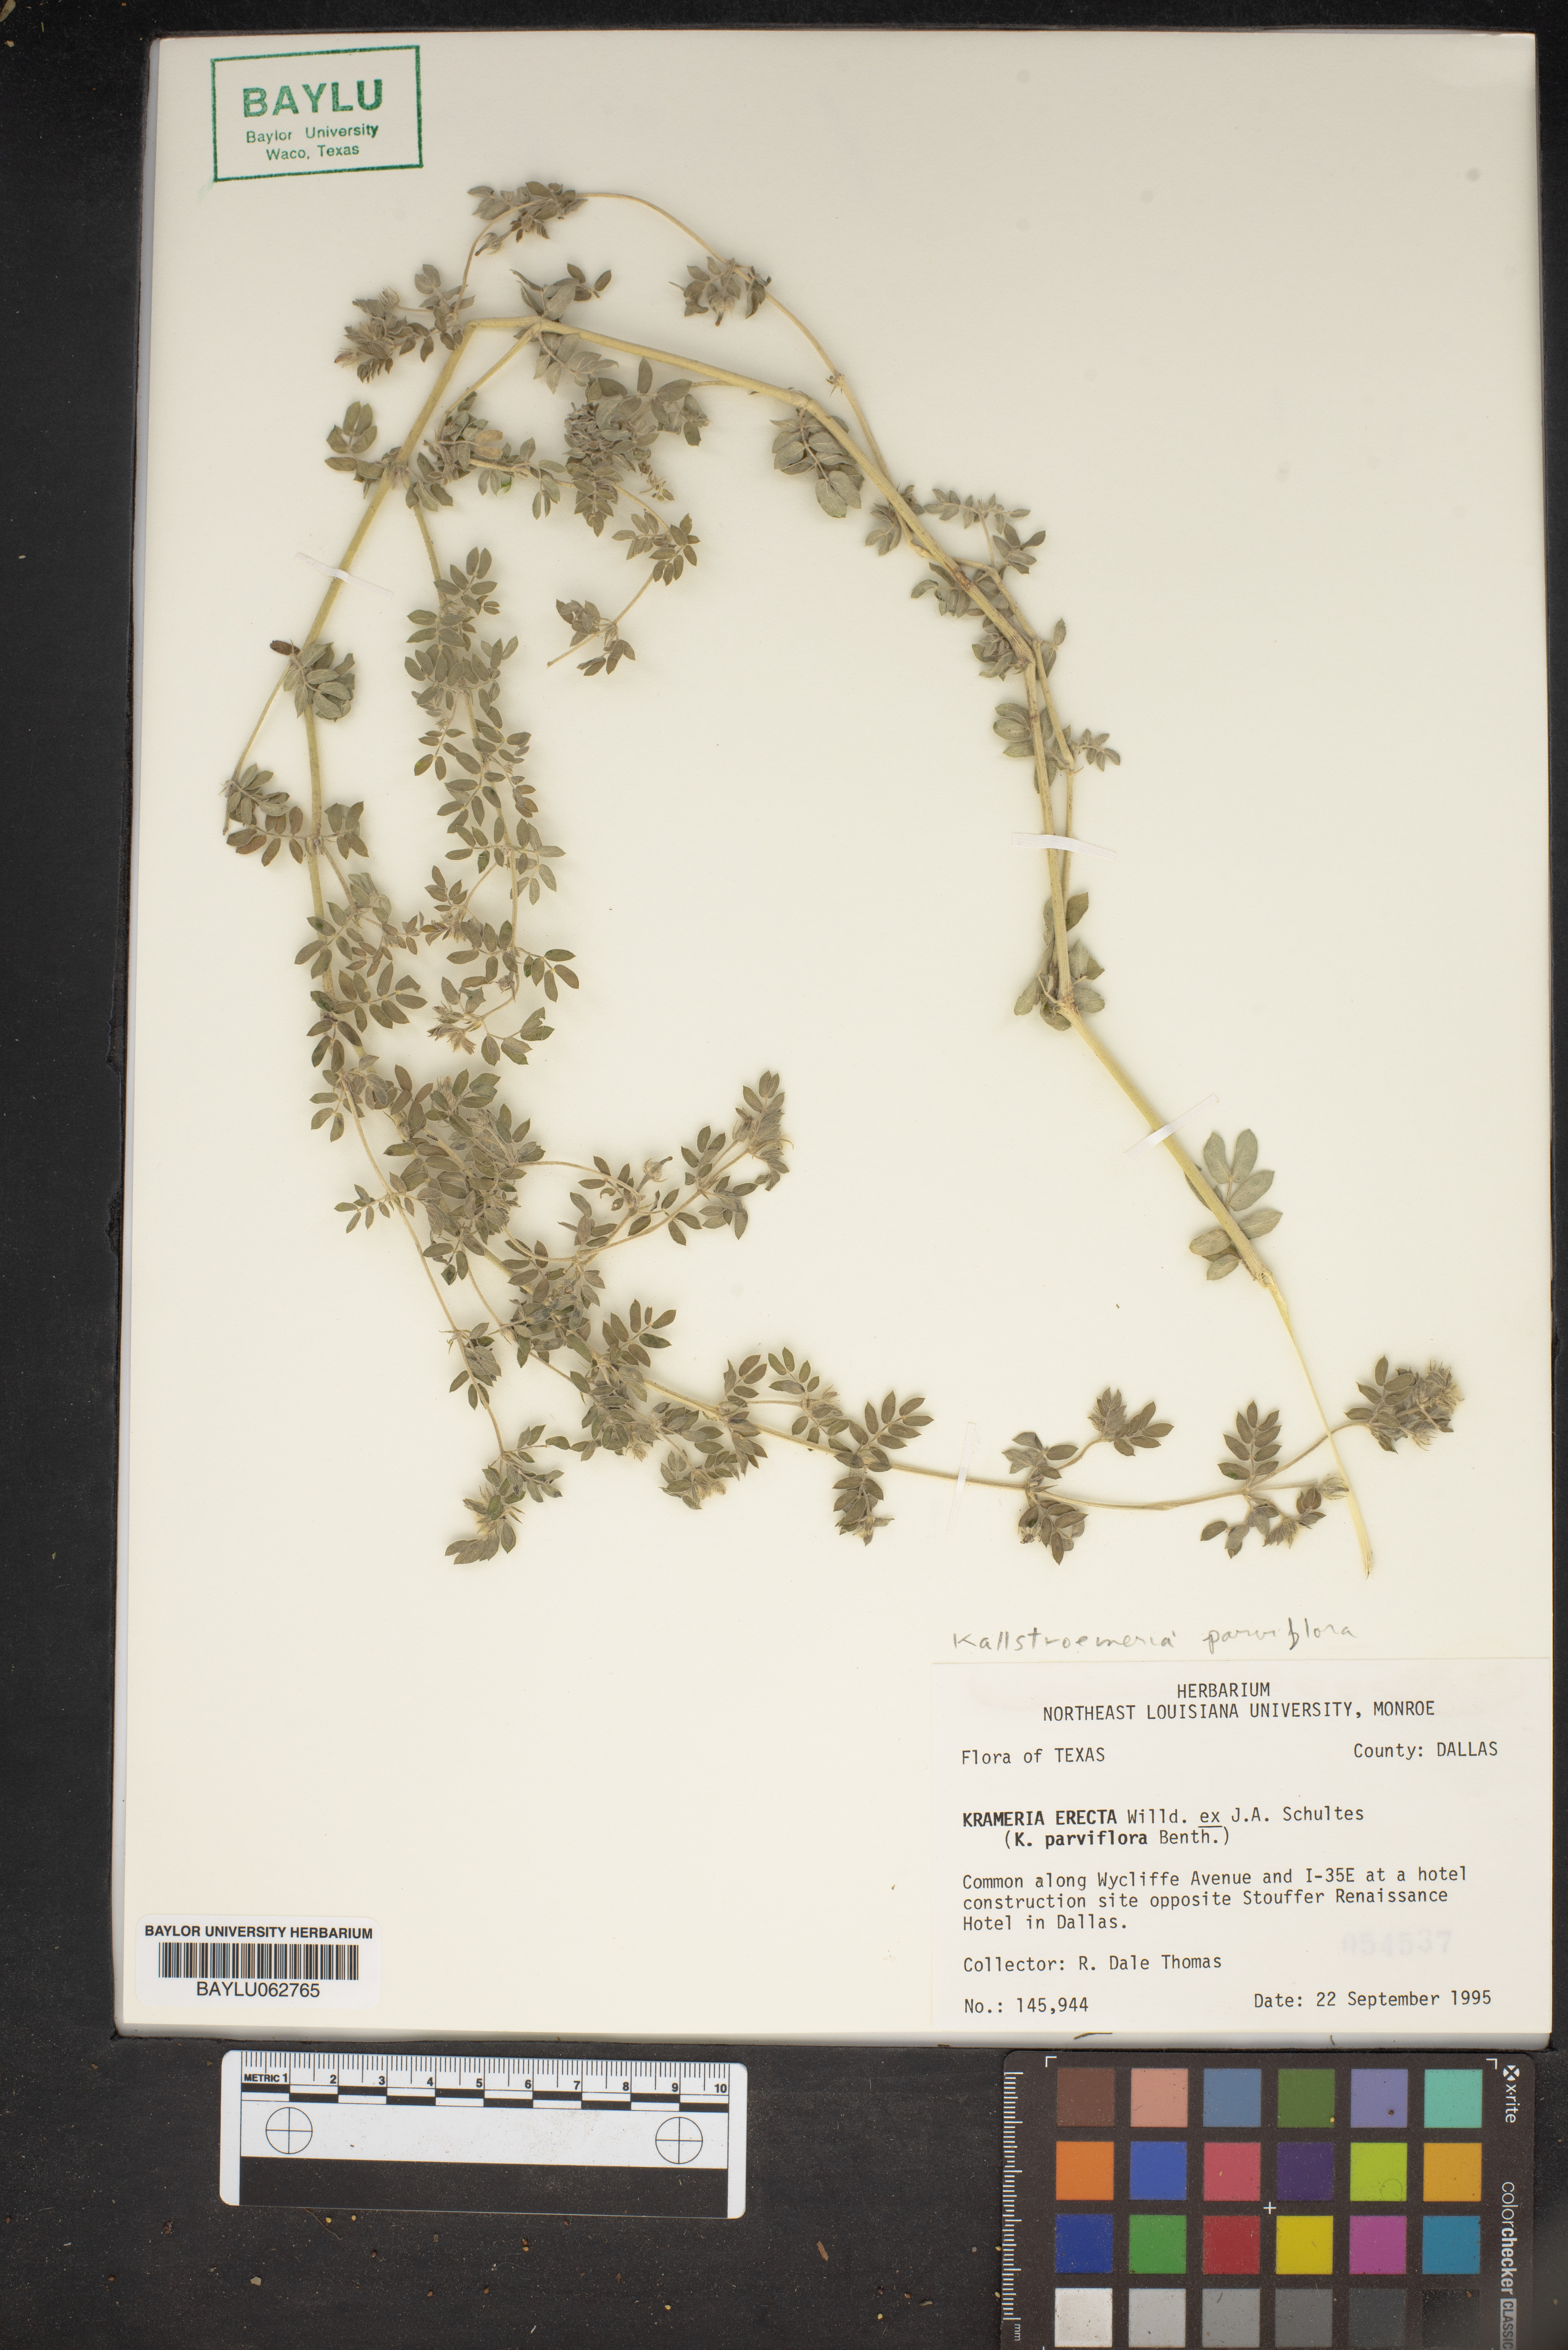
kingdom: Plantae
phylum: Tracheophyta
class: Magnoliopsida
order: Zygophyllales
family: Krameriaceae
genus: Krameria
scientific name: Krameria erecta
